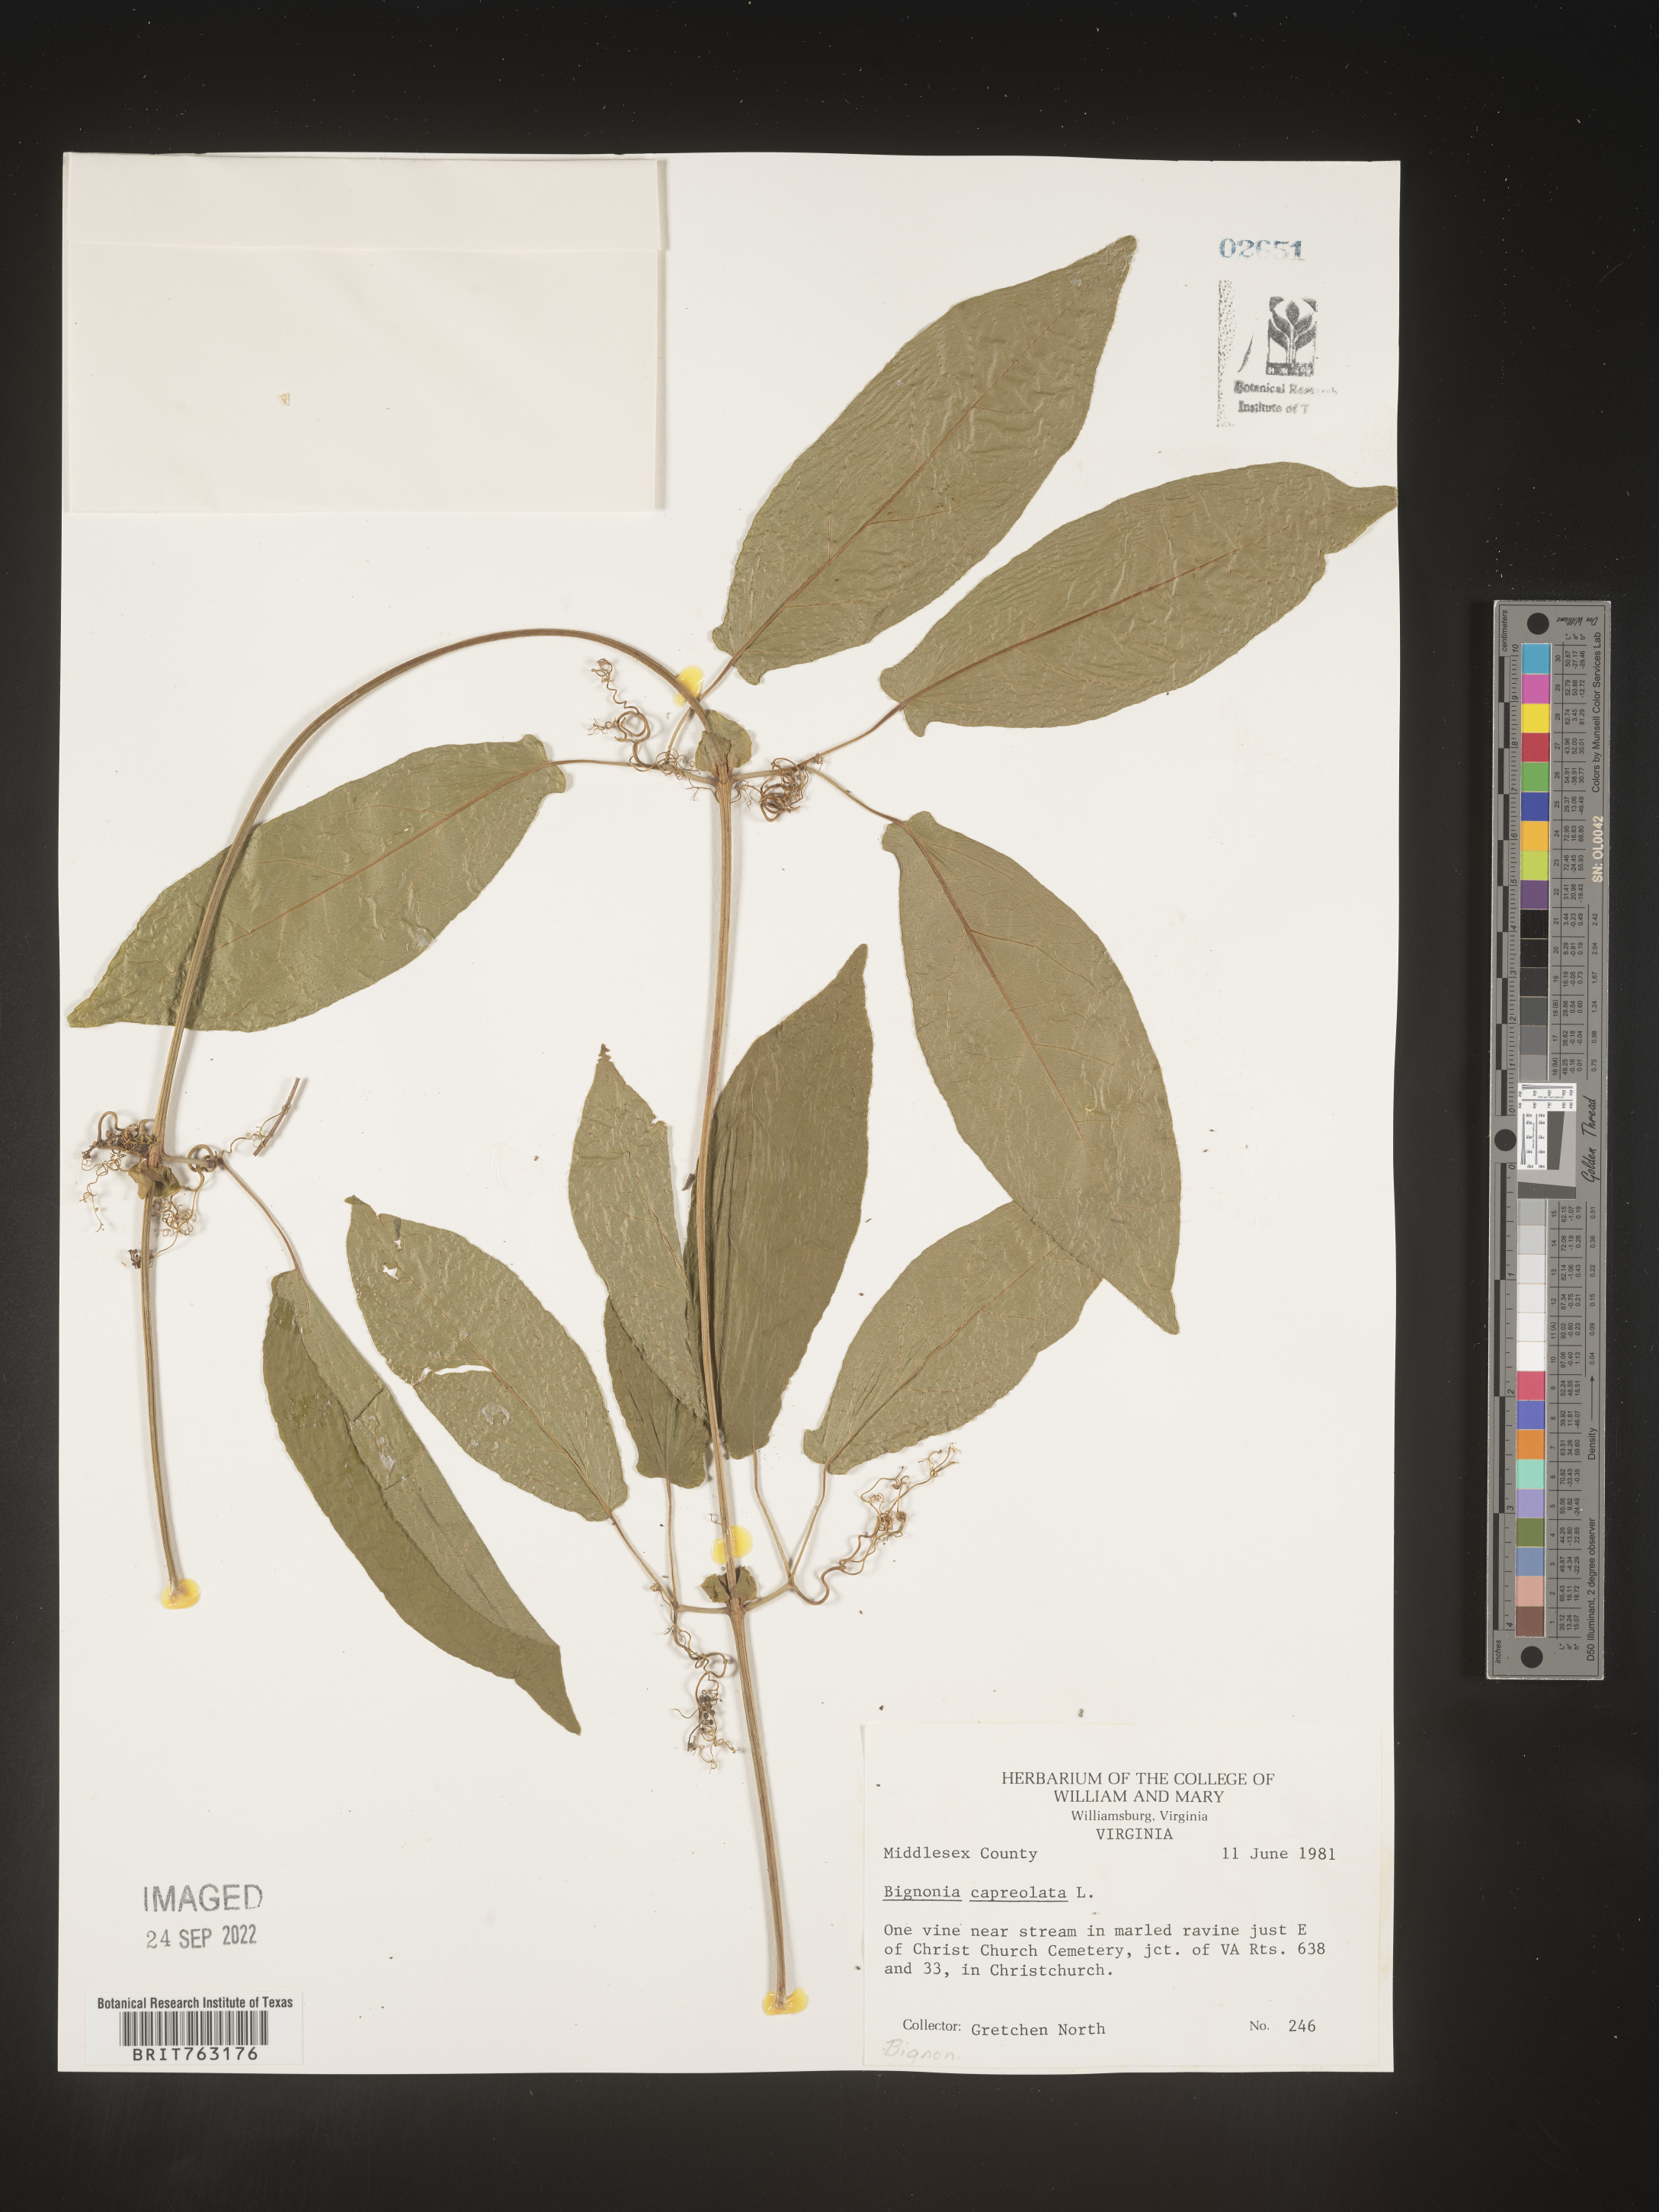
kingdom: Plantae
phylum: Tracheophyta
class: Magnoliopsida
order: Lamiales
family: Bignoniaceae
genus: Bignonia
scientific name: Bignonia capreolata
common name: Crossvine
